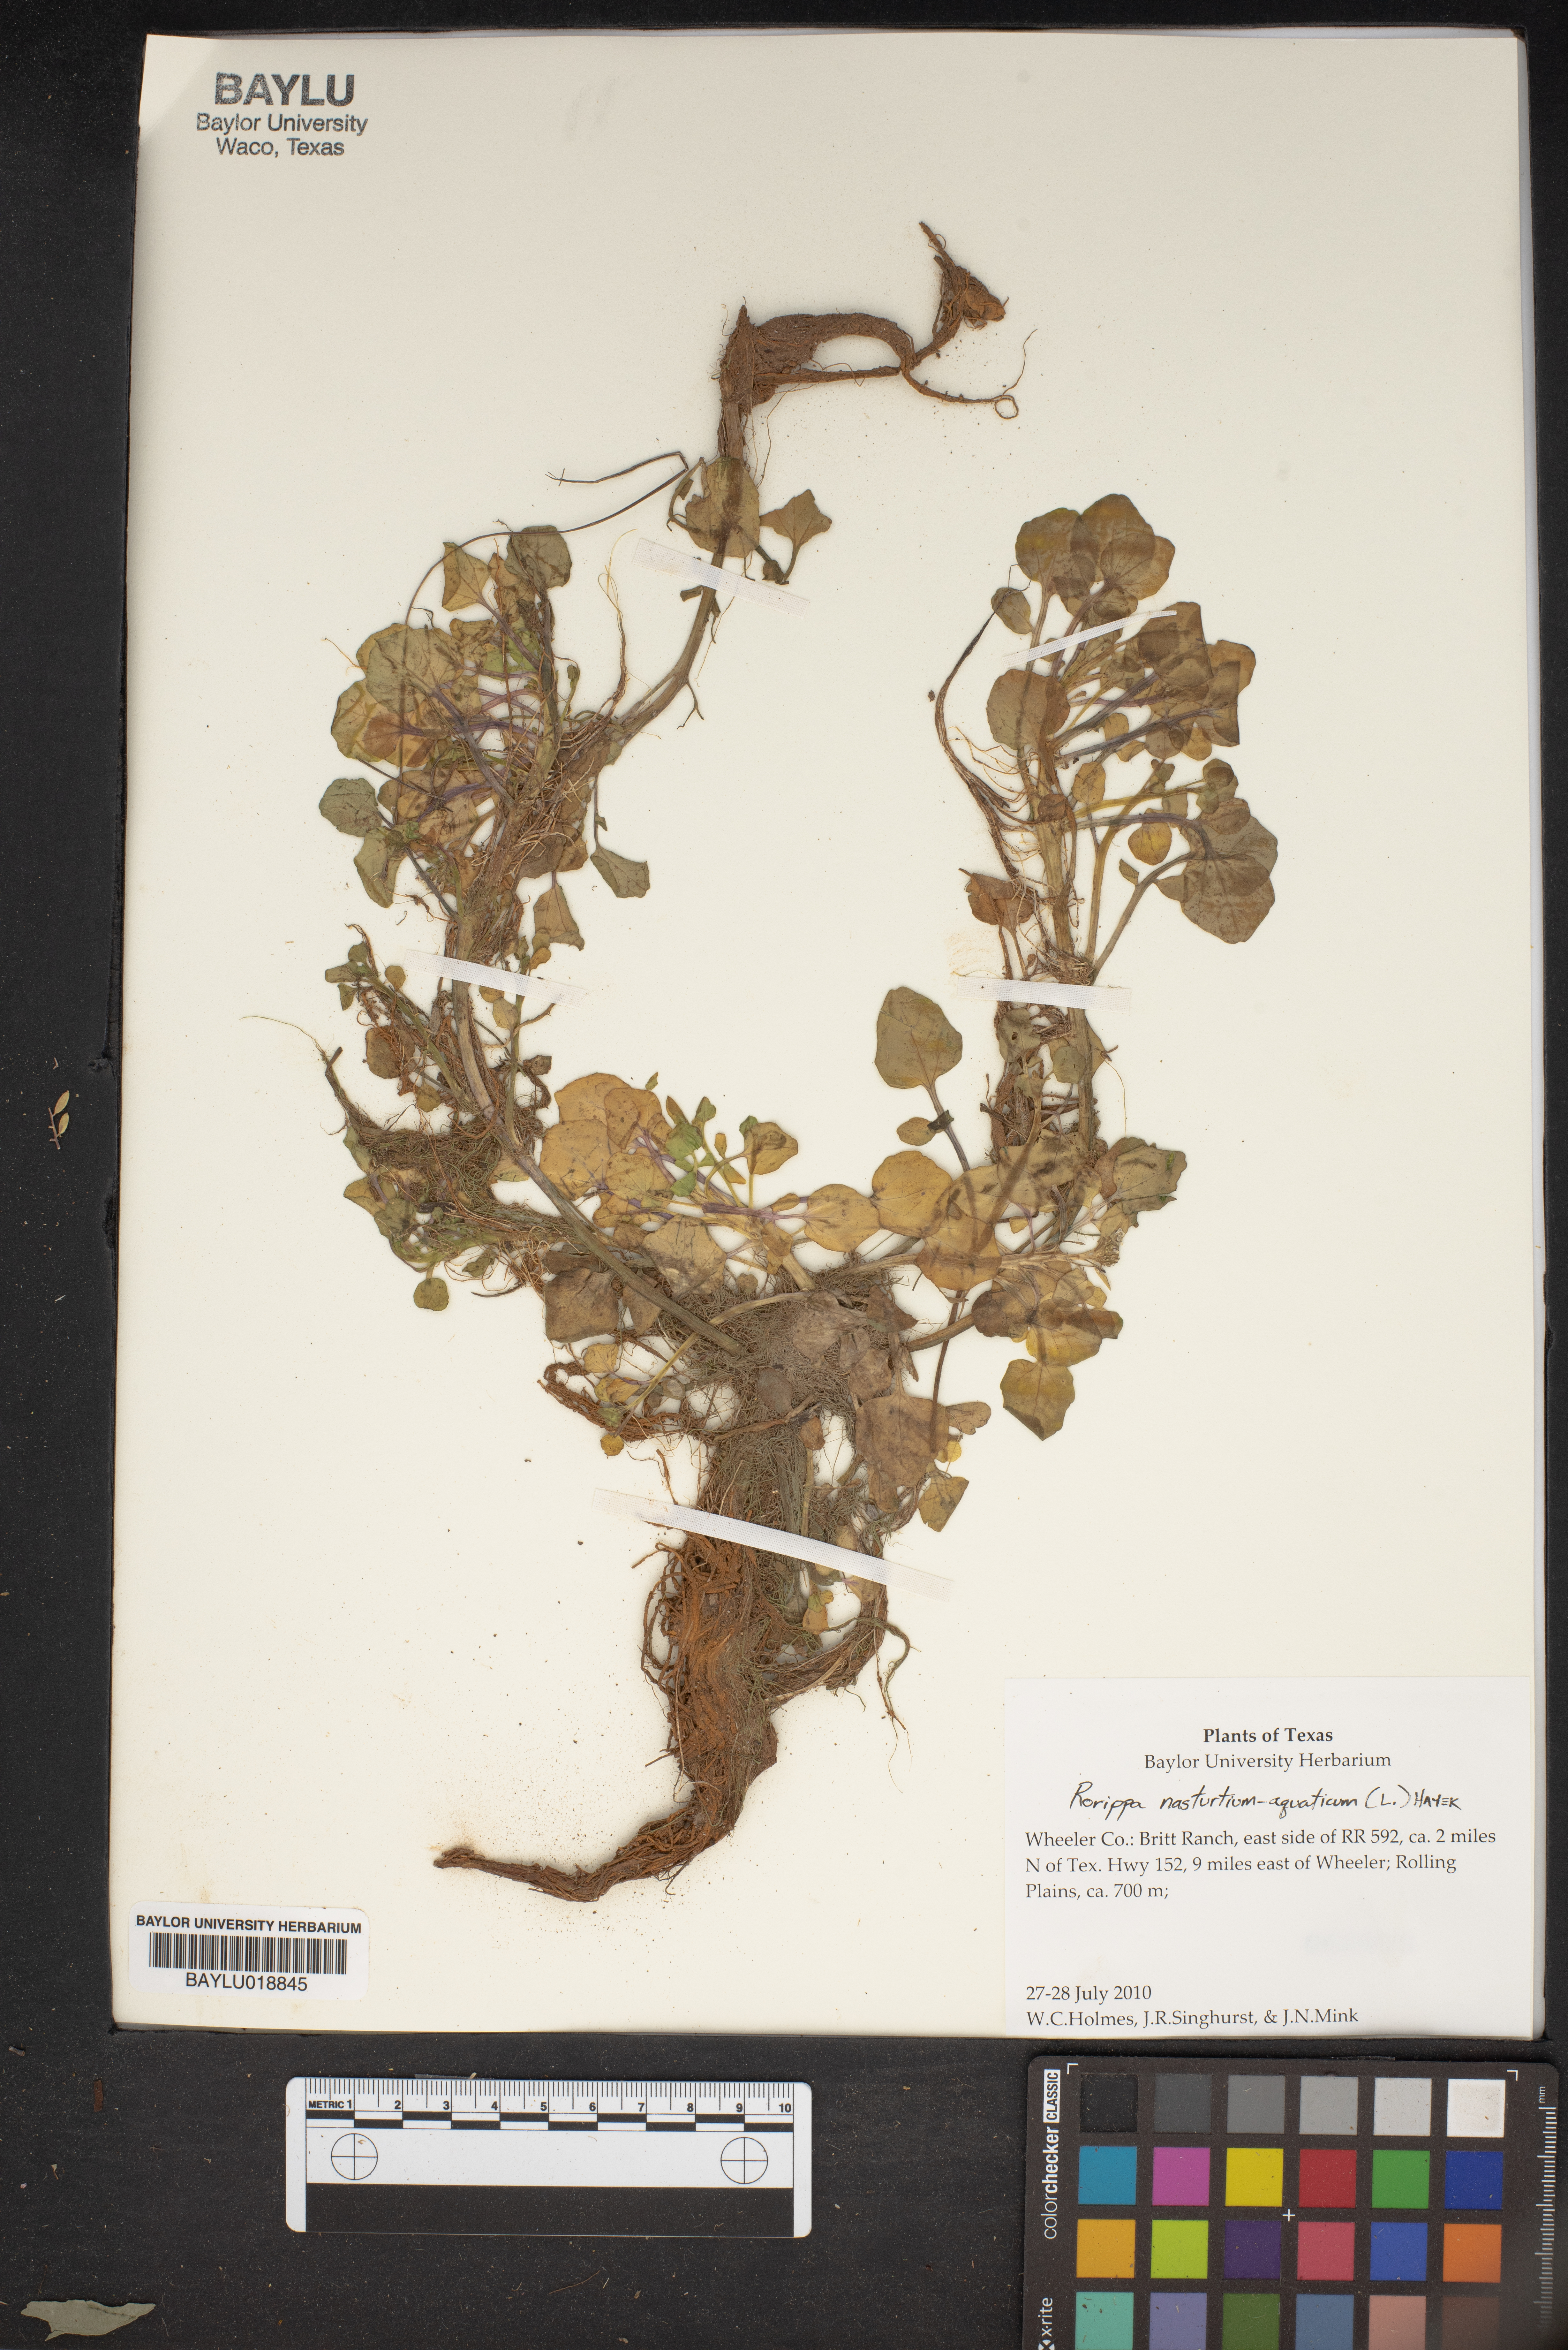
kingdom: Plantae
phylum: Tracheophyta
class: Magnoliopsida
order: Brassicales
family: Brassicaceae
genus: Nasturtium
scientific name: Nasturtium officinale
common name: Watercress
